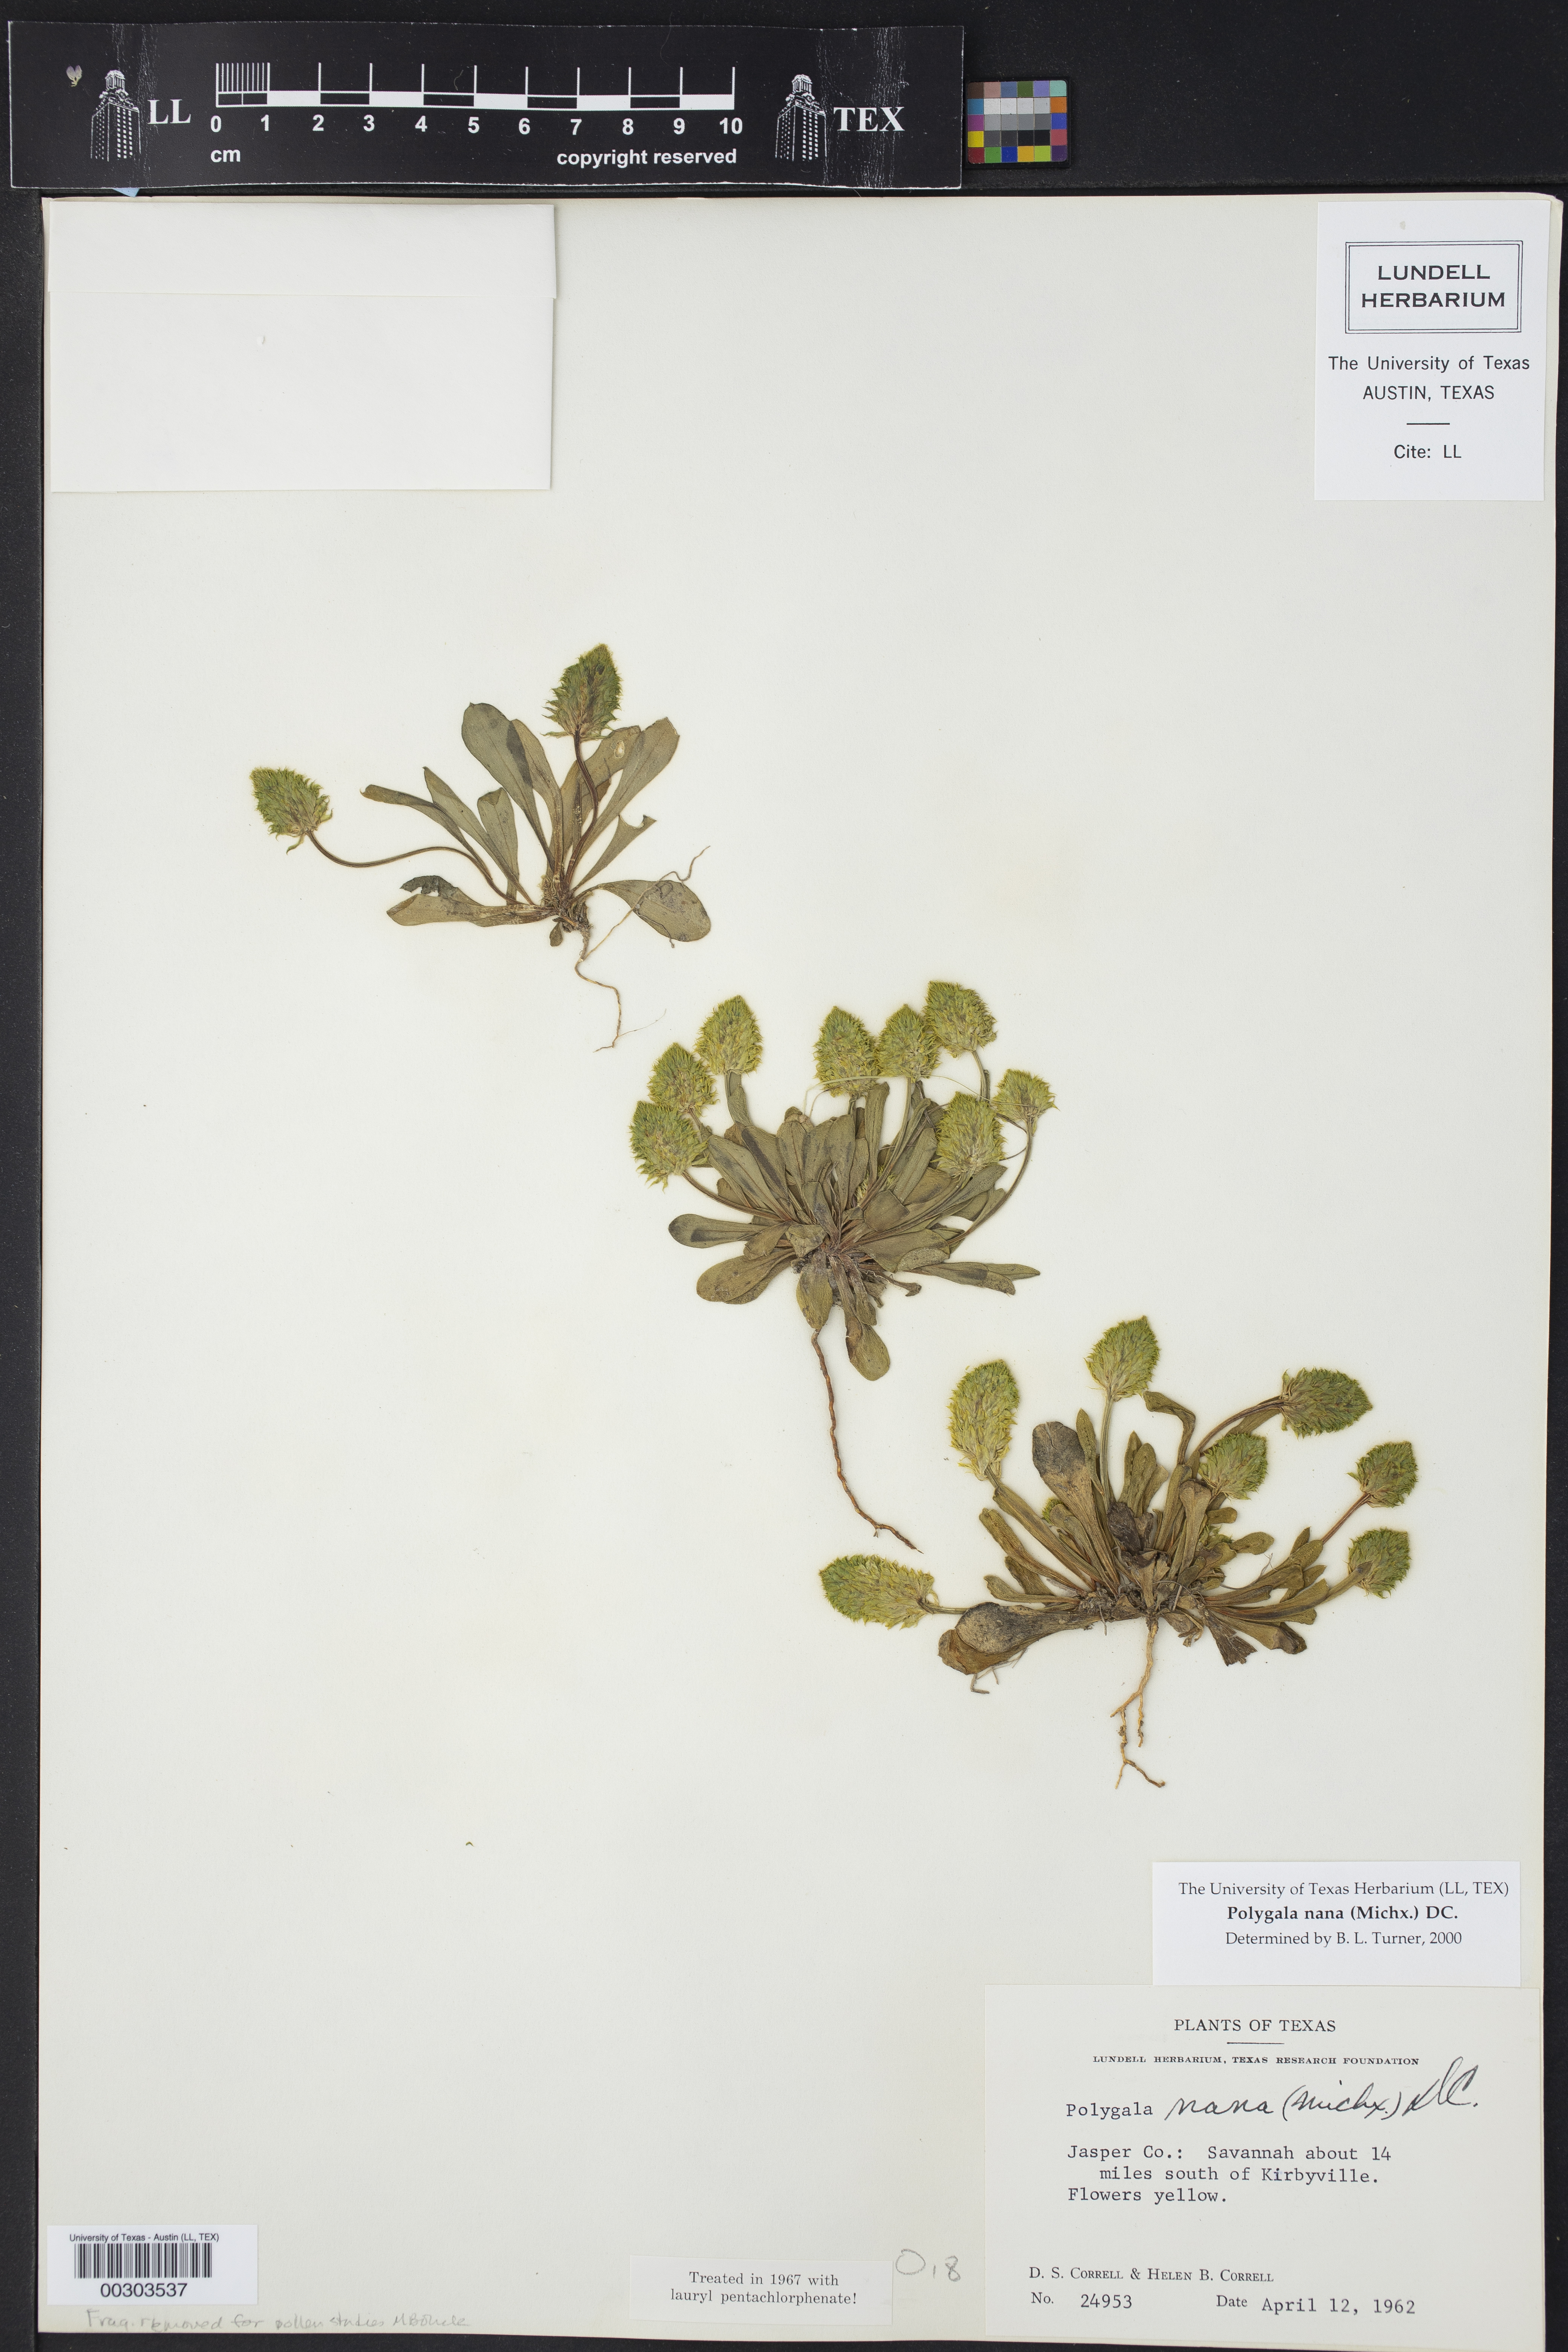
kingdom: Plantae
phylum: Tracheophyta
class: Magnoliopsida
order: Fabales
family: Polygalaceae
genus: Polygala
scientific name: Polygala nana
